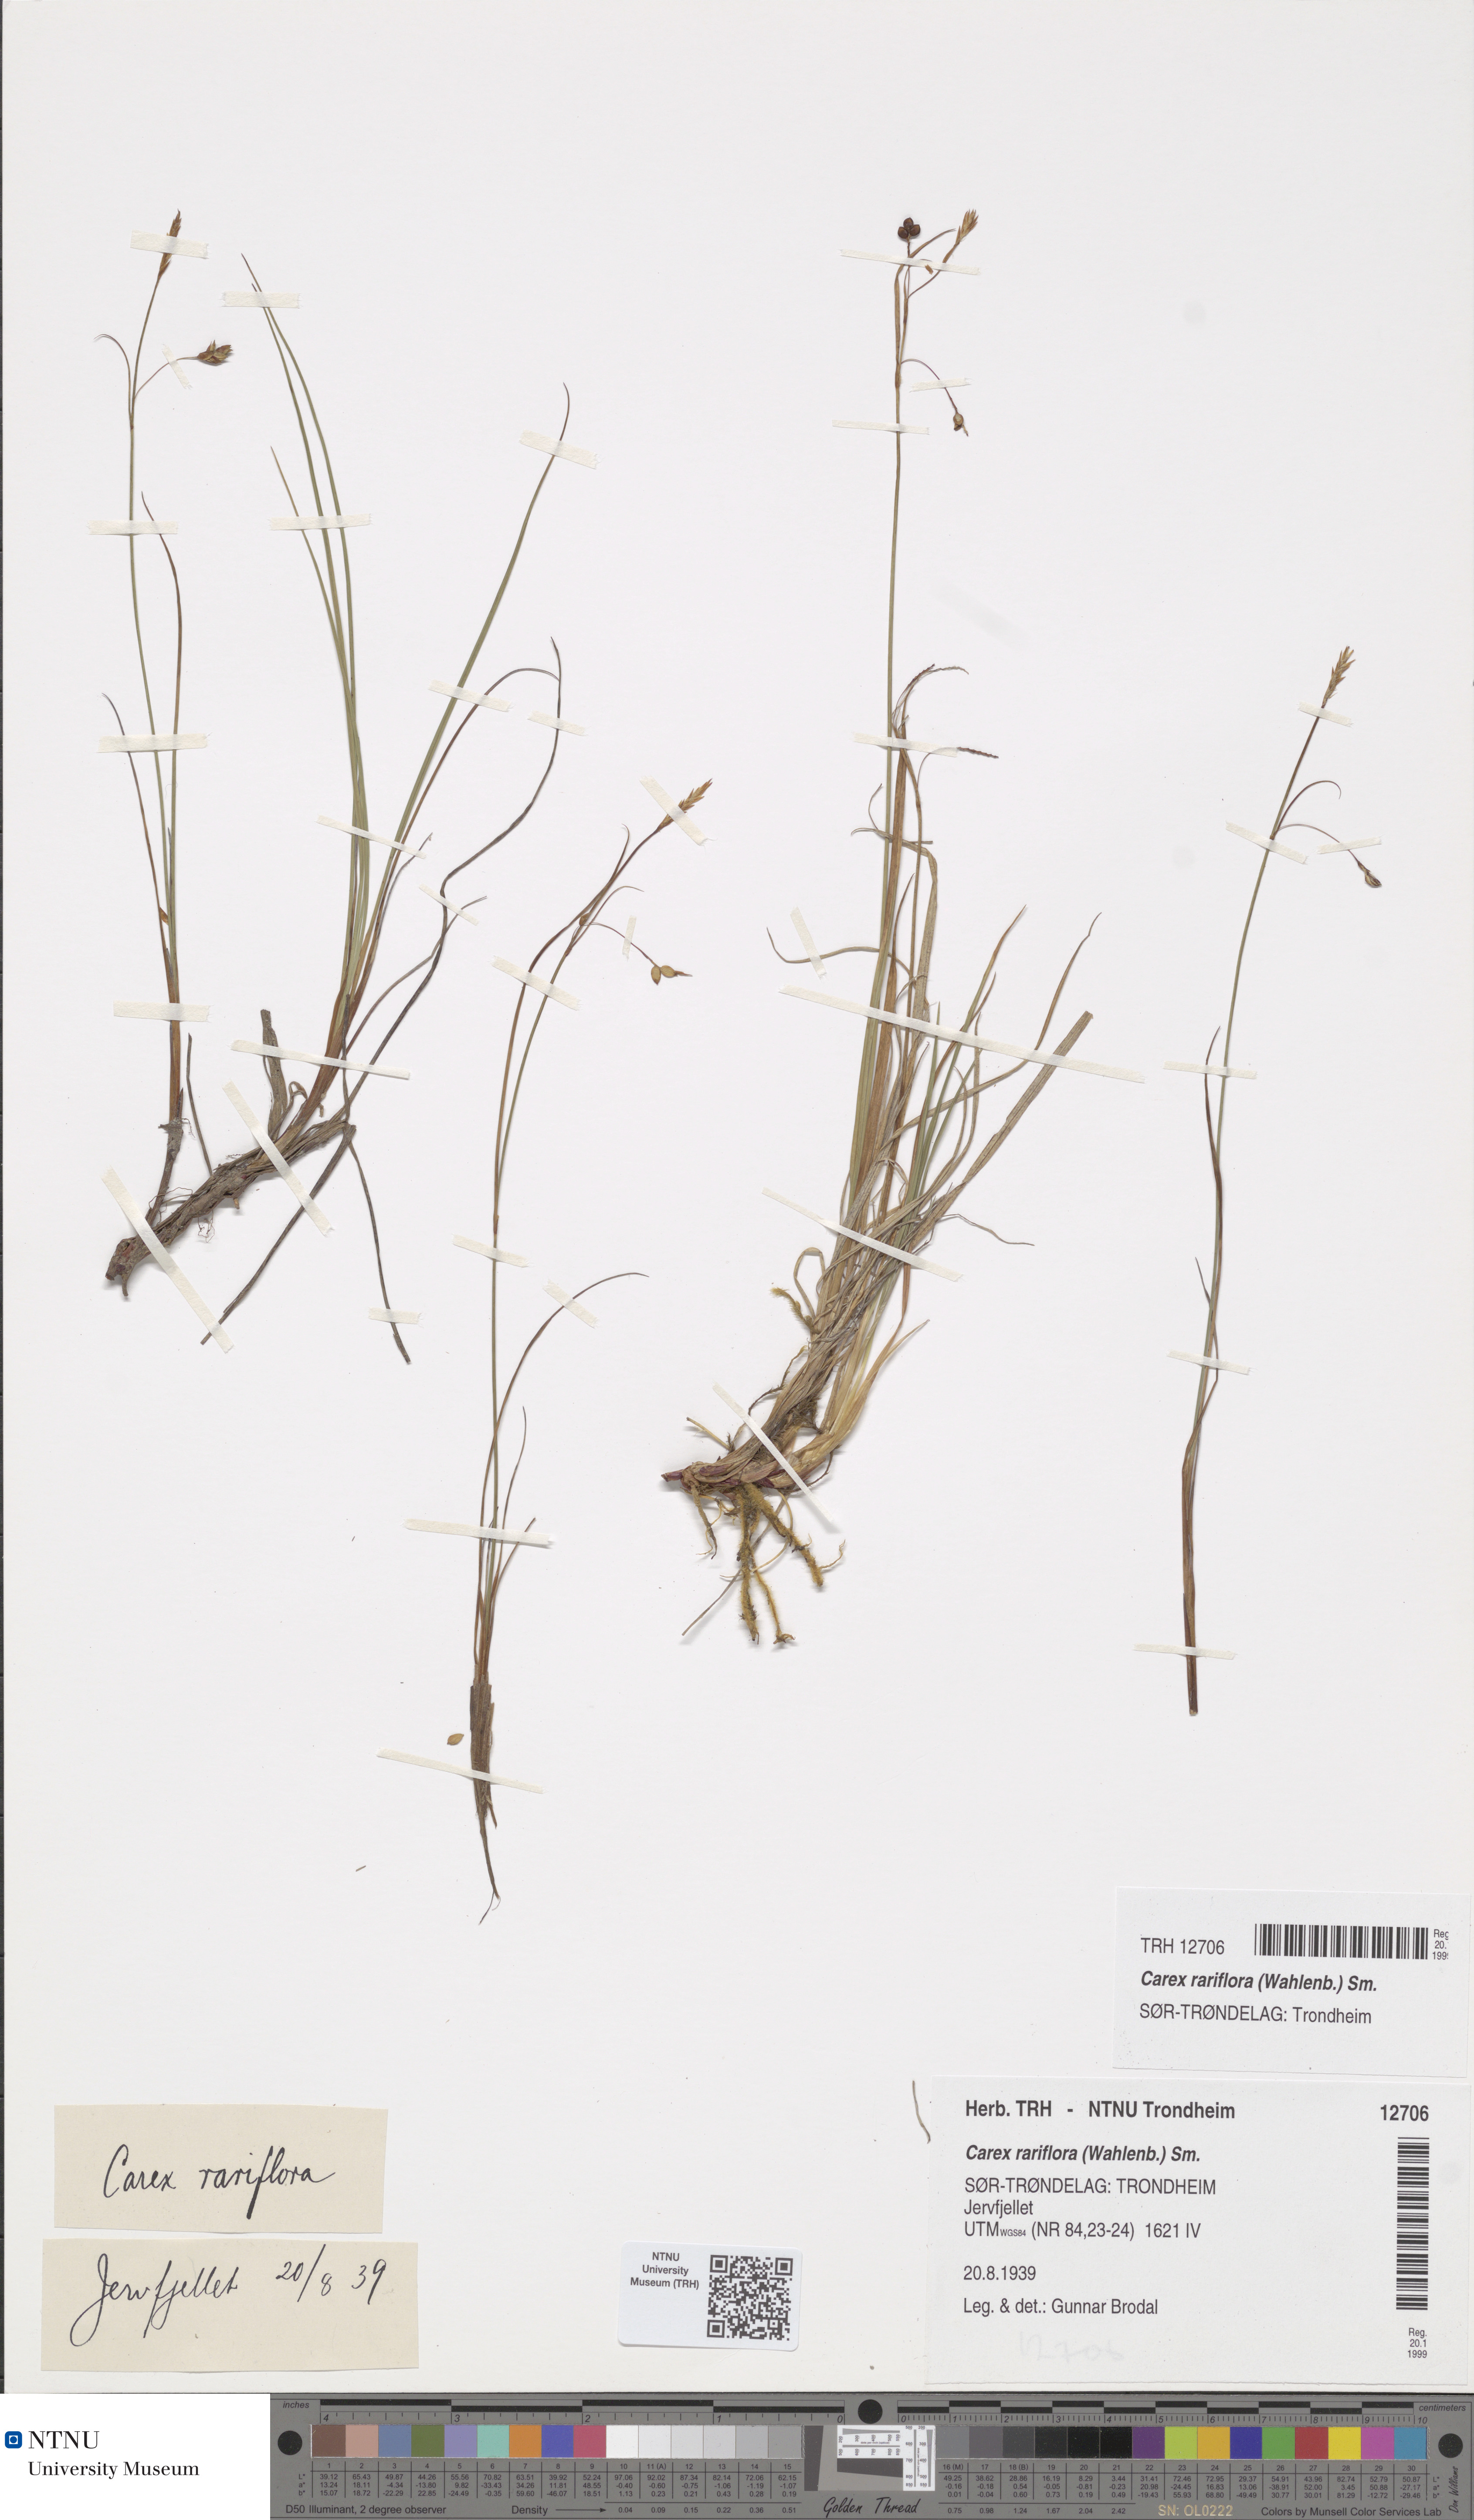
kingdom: Plantae
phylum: Tracheophyta
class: Liliopsida
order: Poales
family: Cyperaceae
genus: Carex
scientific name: Carex rariflora
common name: Loose-flowered alpine sedge
